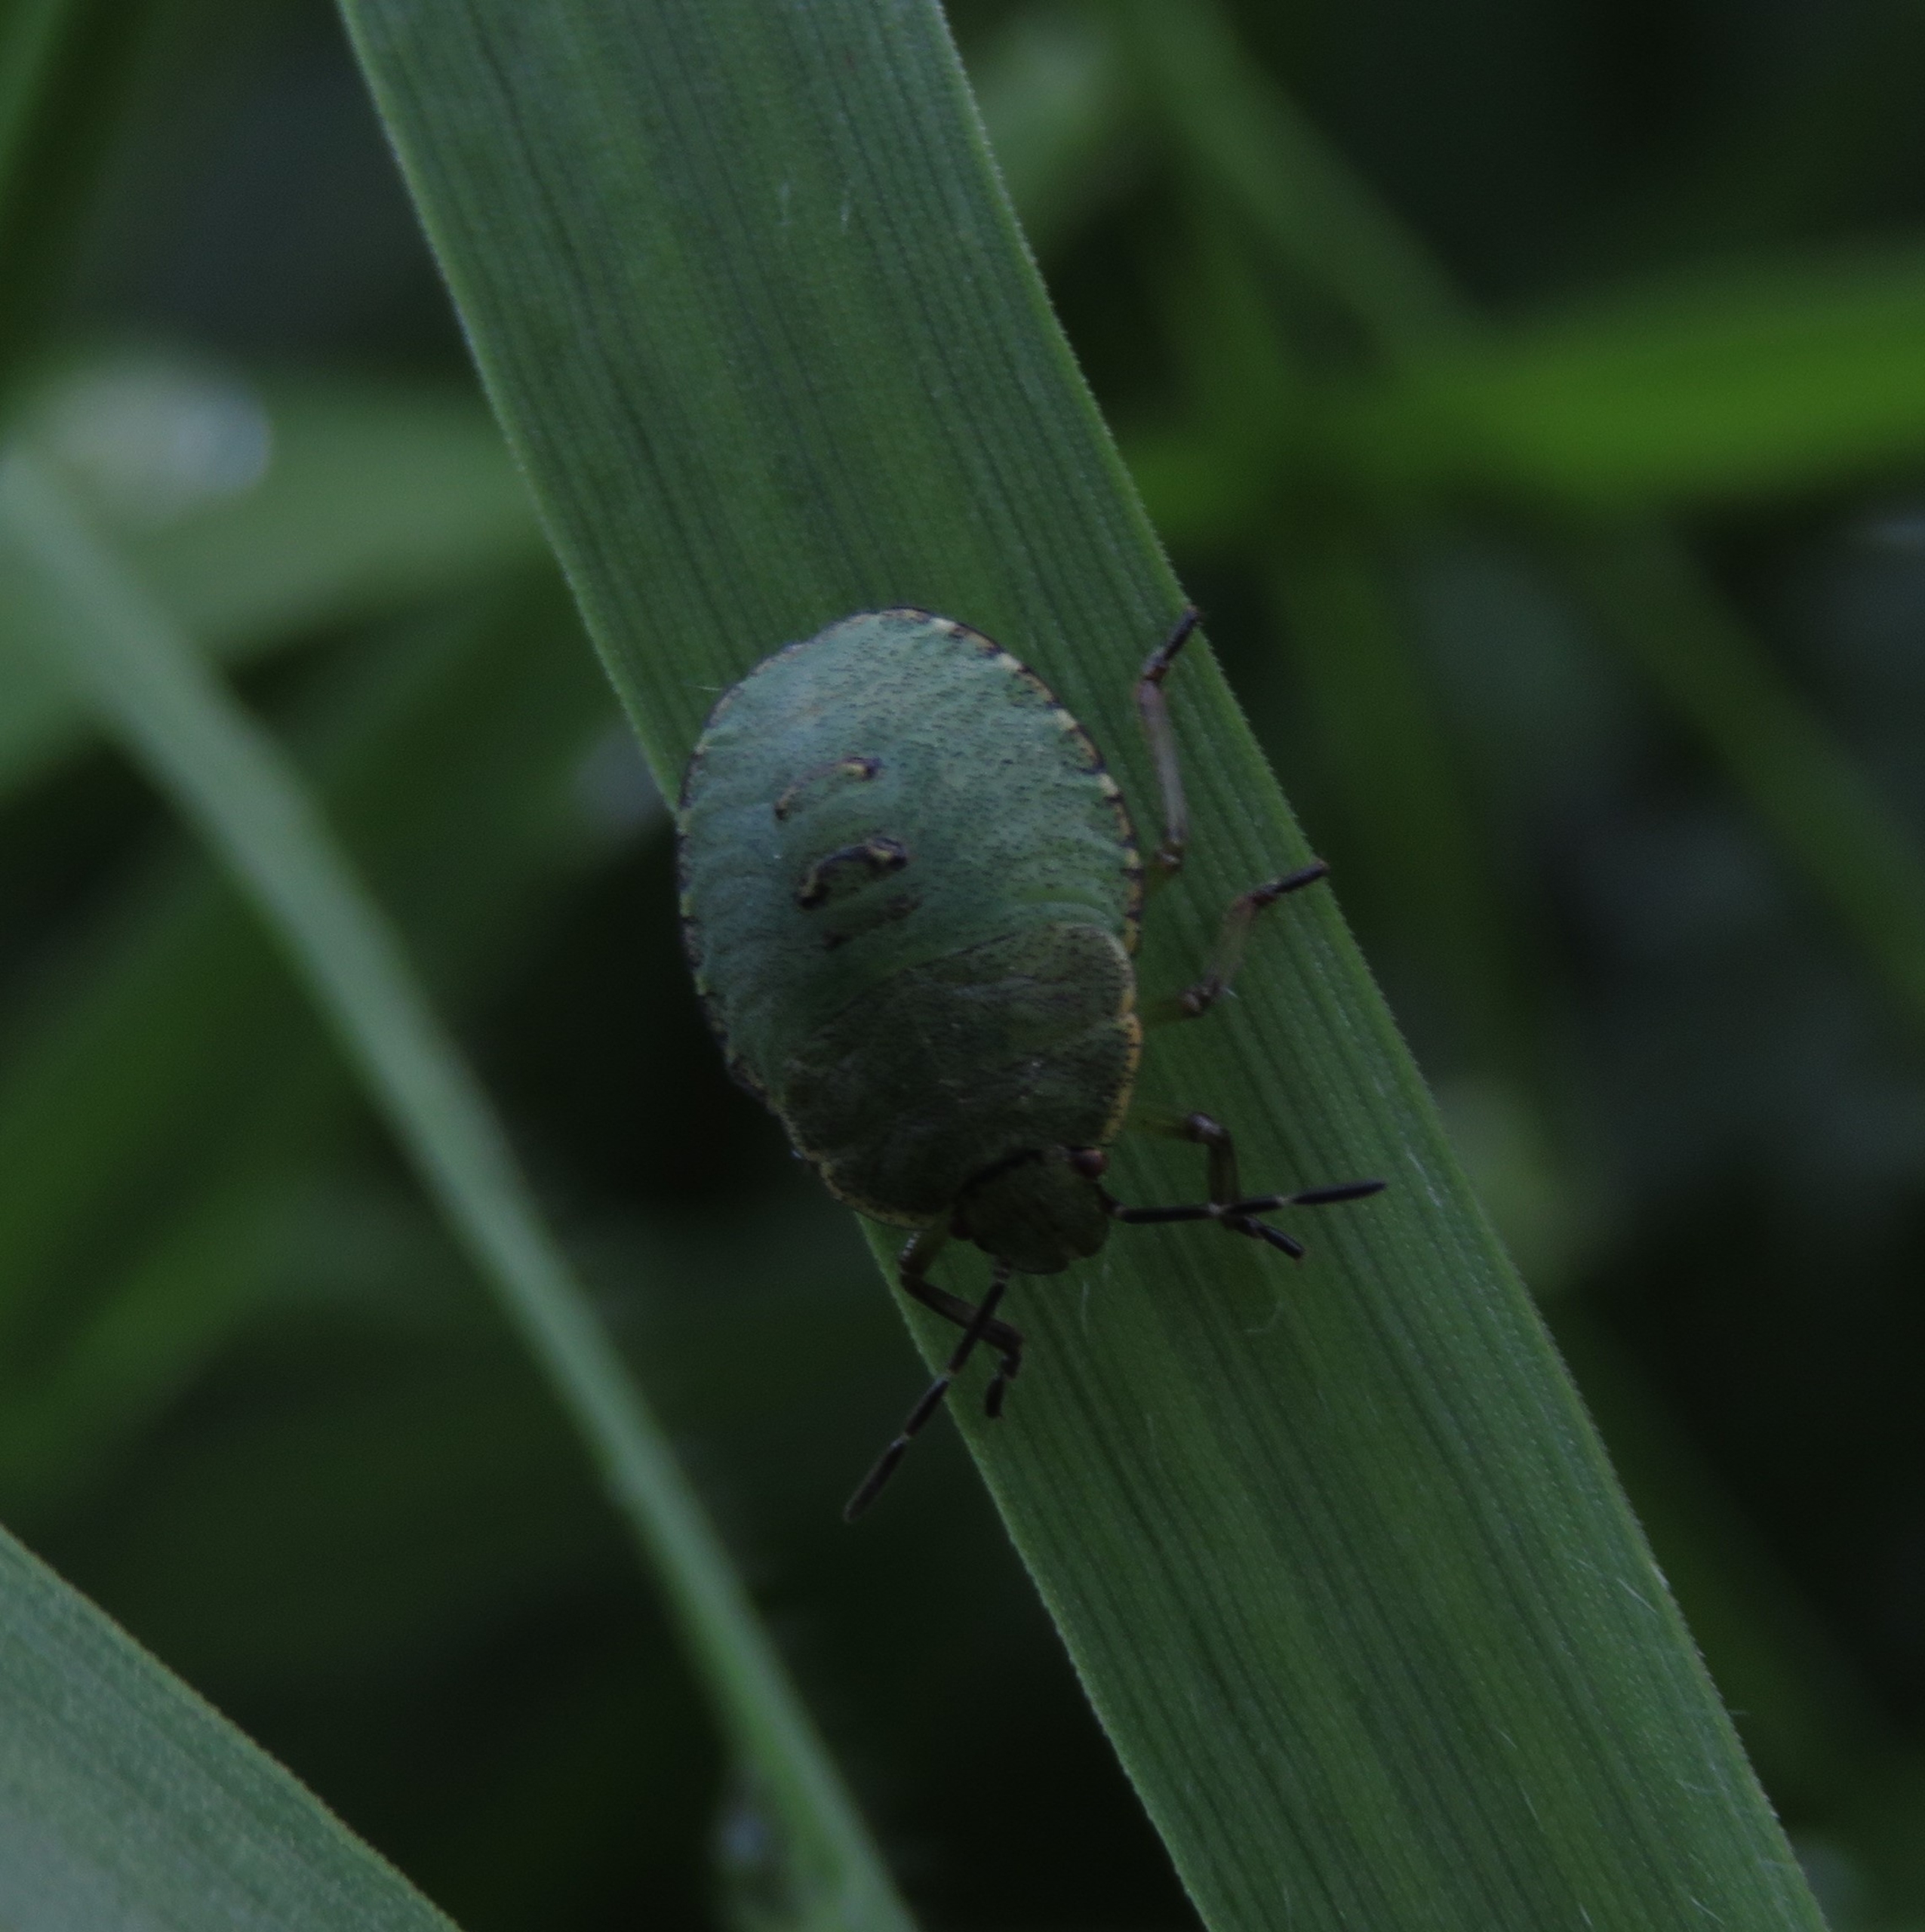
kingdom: Animalia
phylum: Arthropoda
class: Insecta
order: Hemiptera
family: Pentatomidae
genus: Palomena
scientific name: Palomena prasina
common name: Grøn bredtæge
